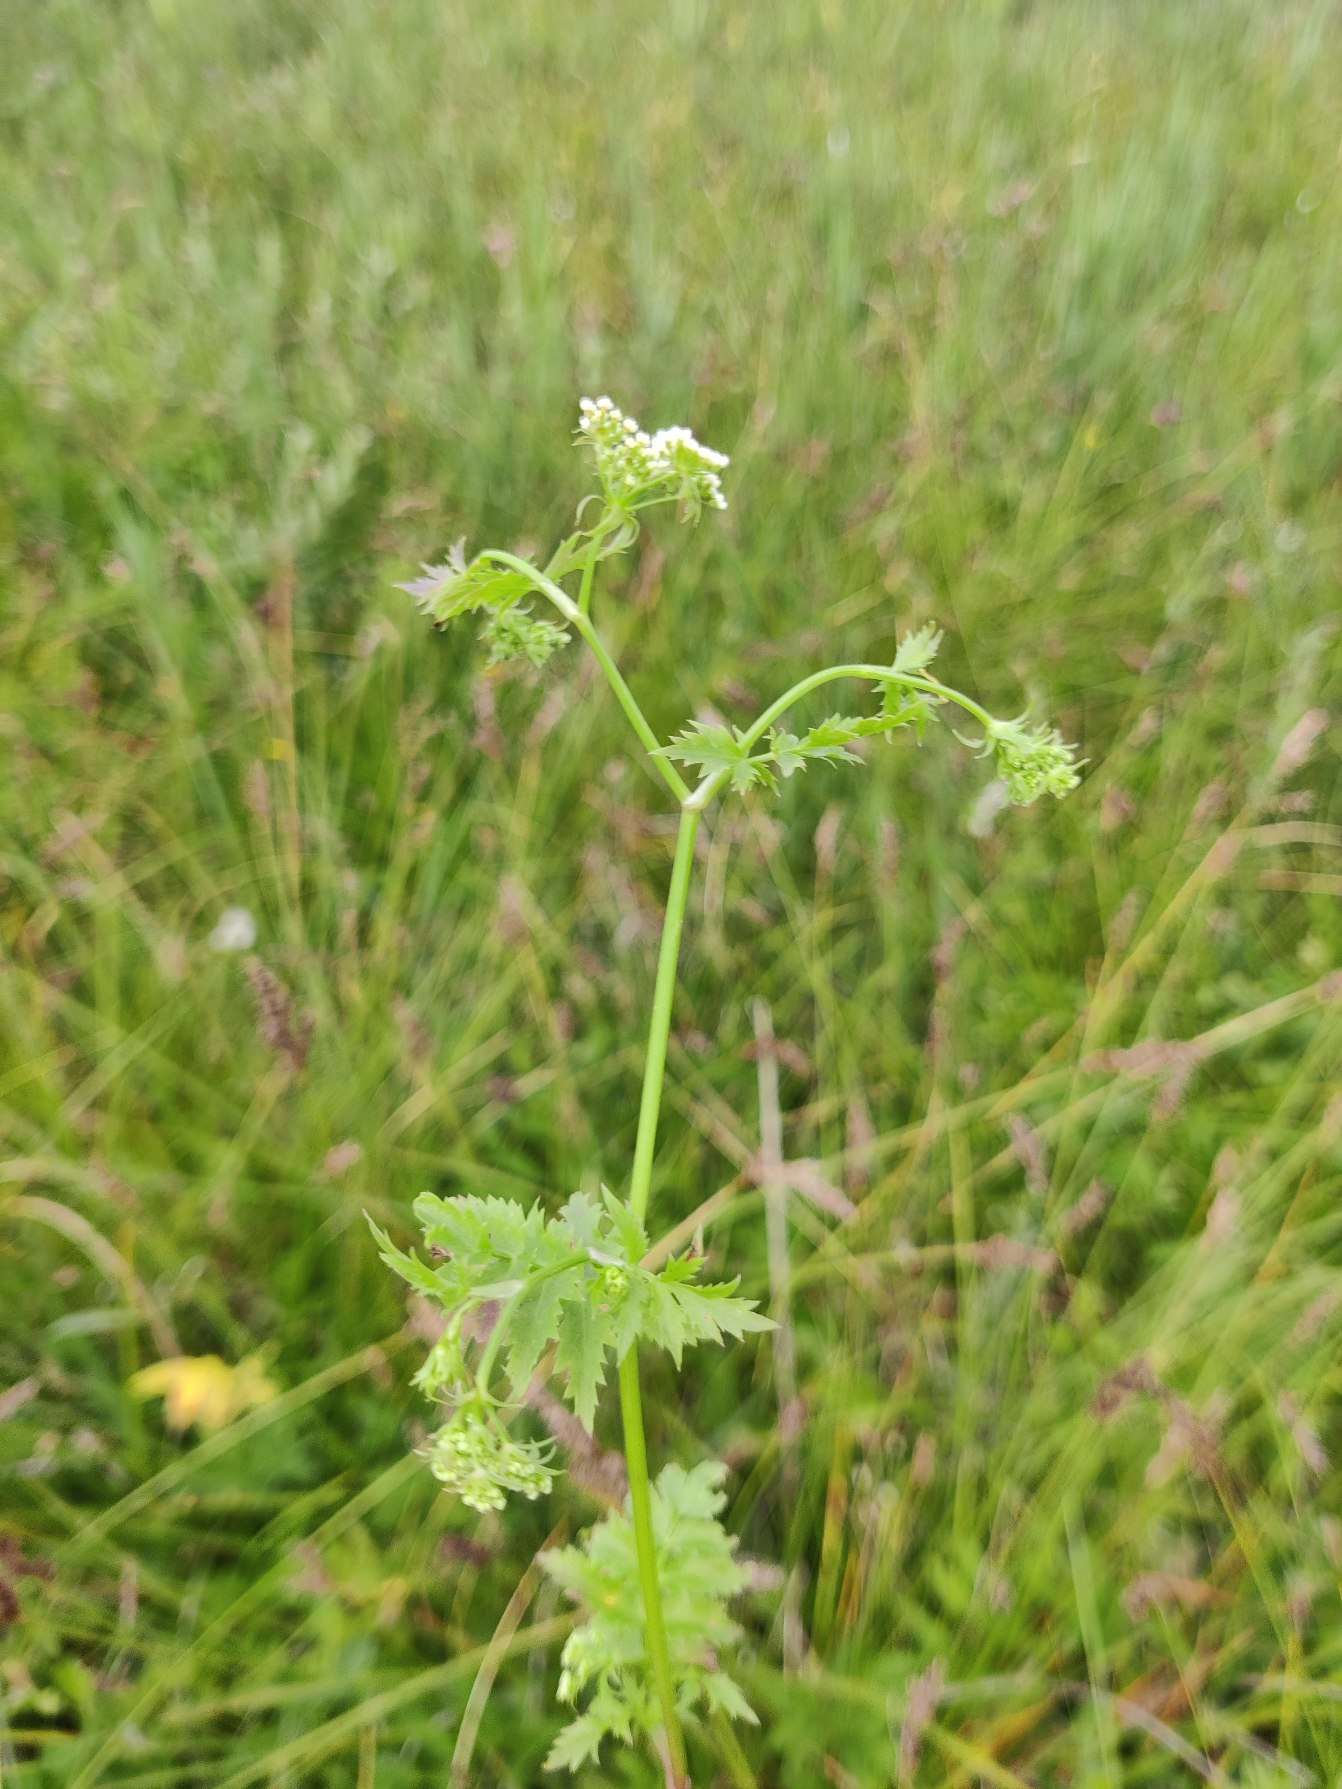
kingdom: Plantae
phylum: Tracheophyta
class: Magnoliopsida
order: Apiales
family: Apiaceae
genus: Berula
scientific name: Berula erecta
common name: Sideskærm
